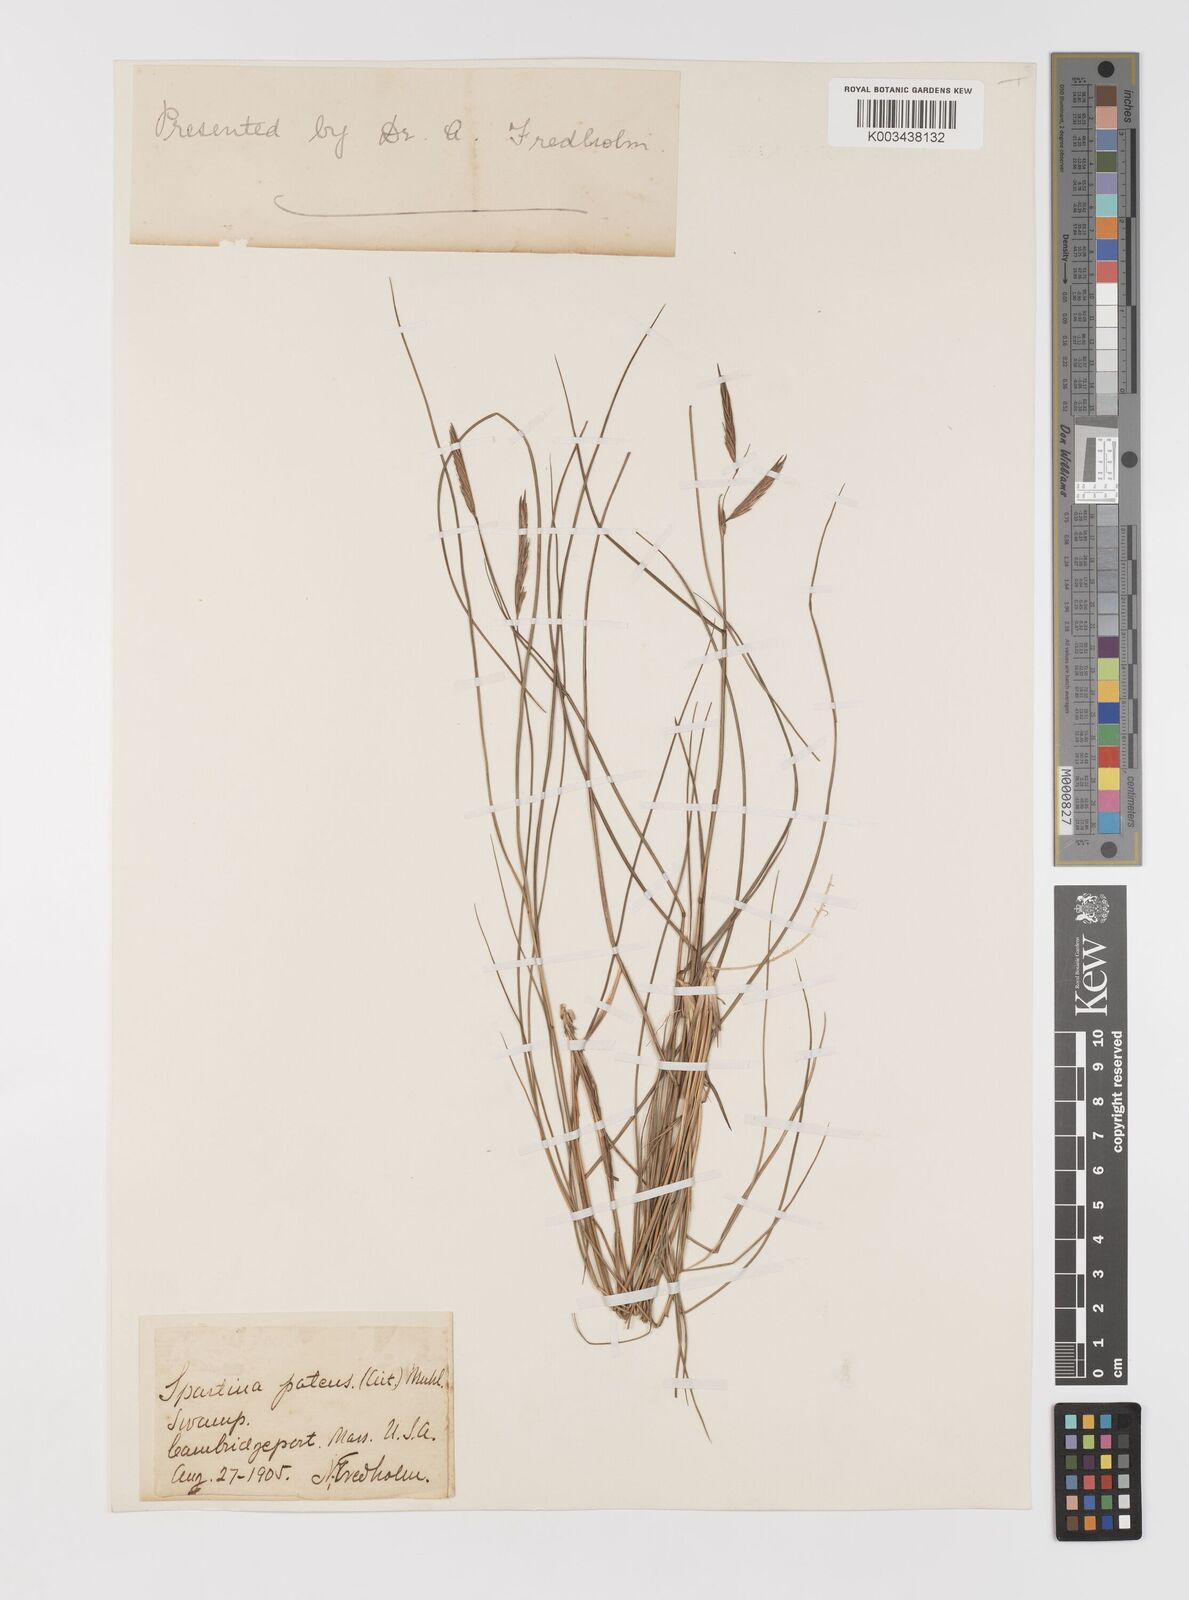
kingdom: Plantae
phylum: Tracheophyta
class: Liliopsida
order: Poales
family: Poaceae
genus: Sporobolus
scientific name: Sporobolus pumilus
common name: Highwater grass
